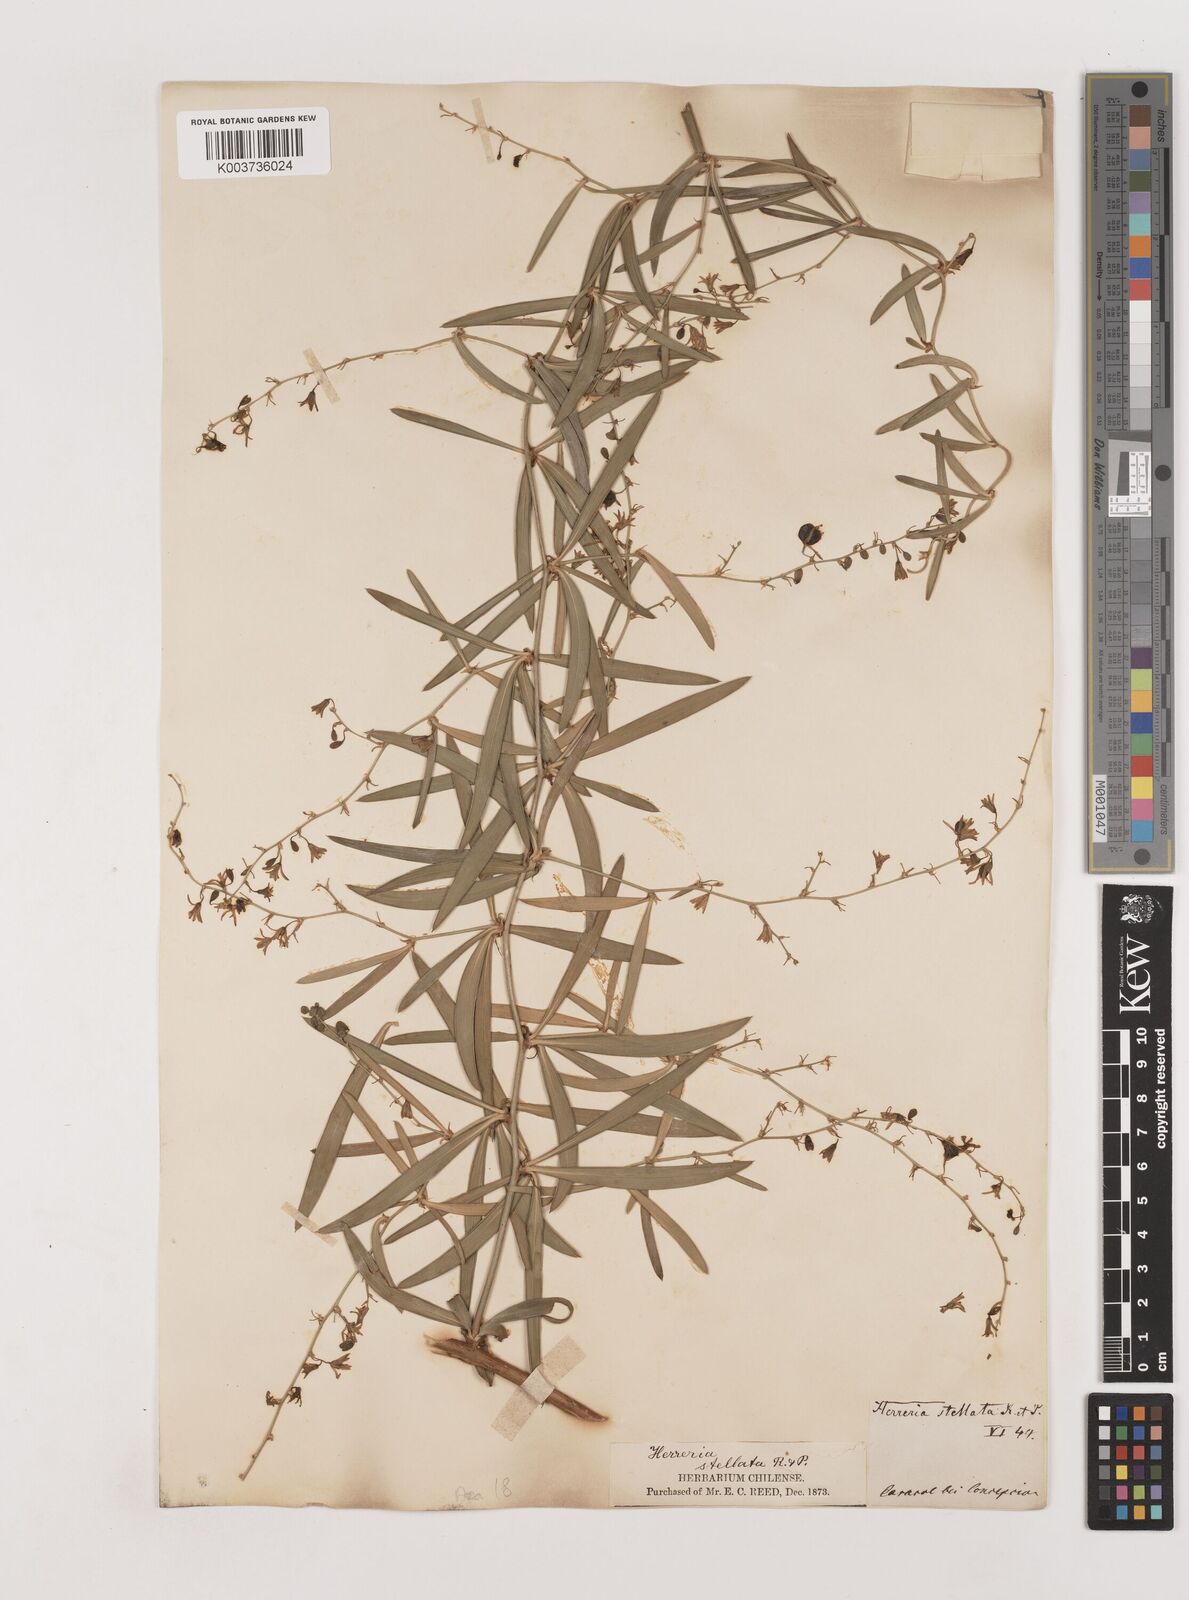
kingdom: Plantae
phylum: Tracheophyta
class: Liliopsida
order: Asparagales
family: Asparagaceae
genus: Herreria
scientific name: Herreria stellata
